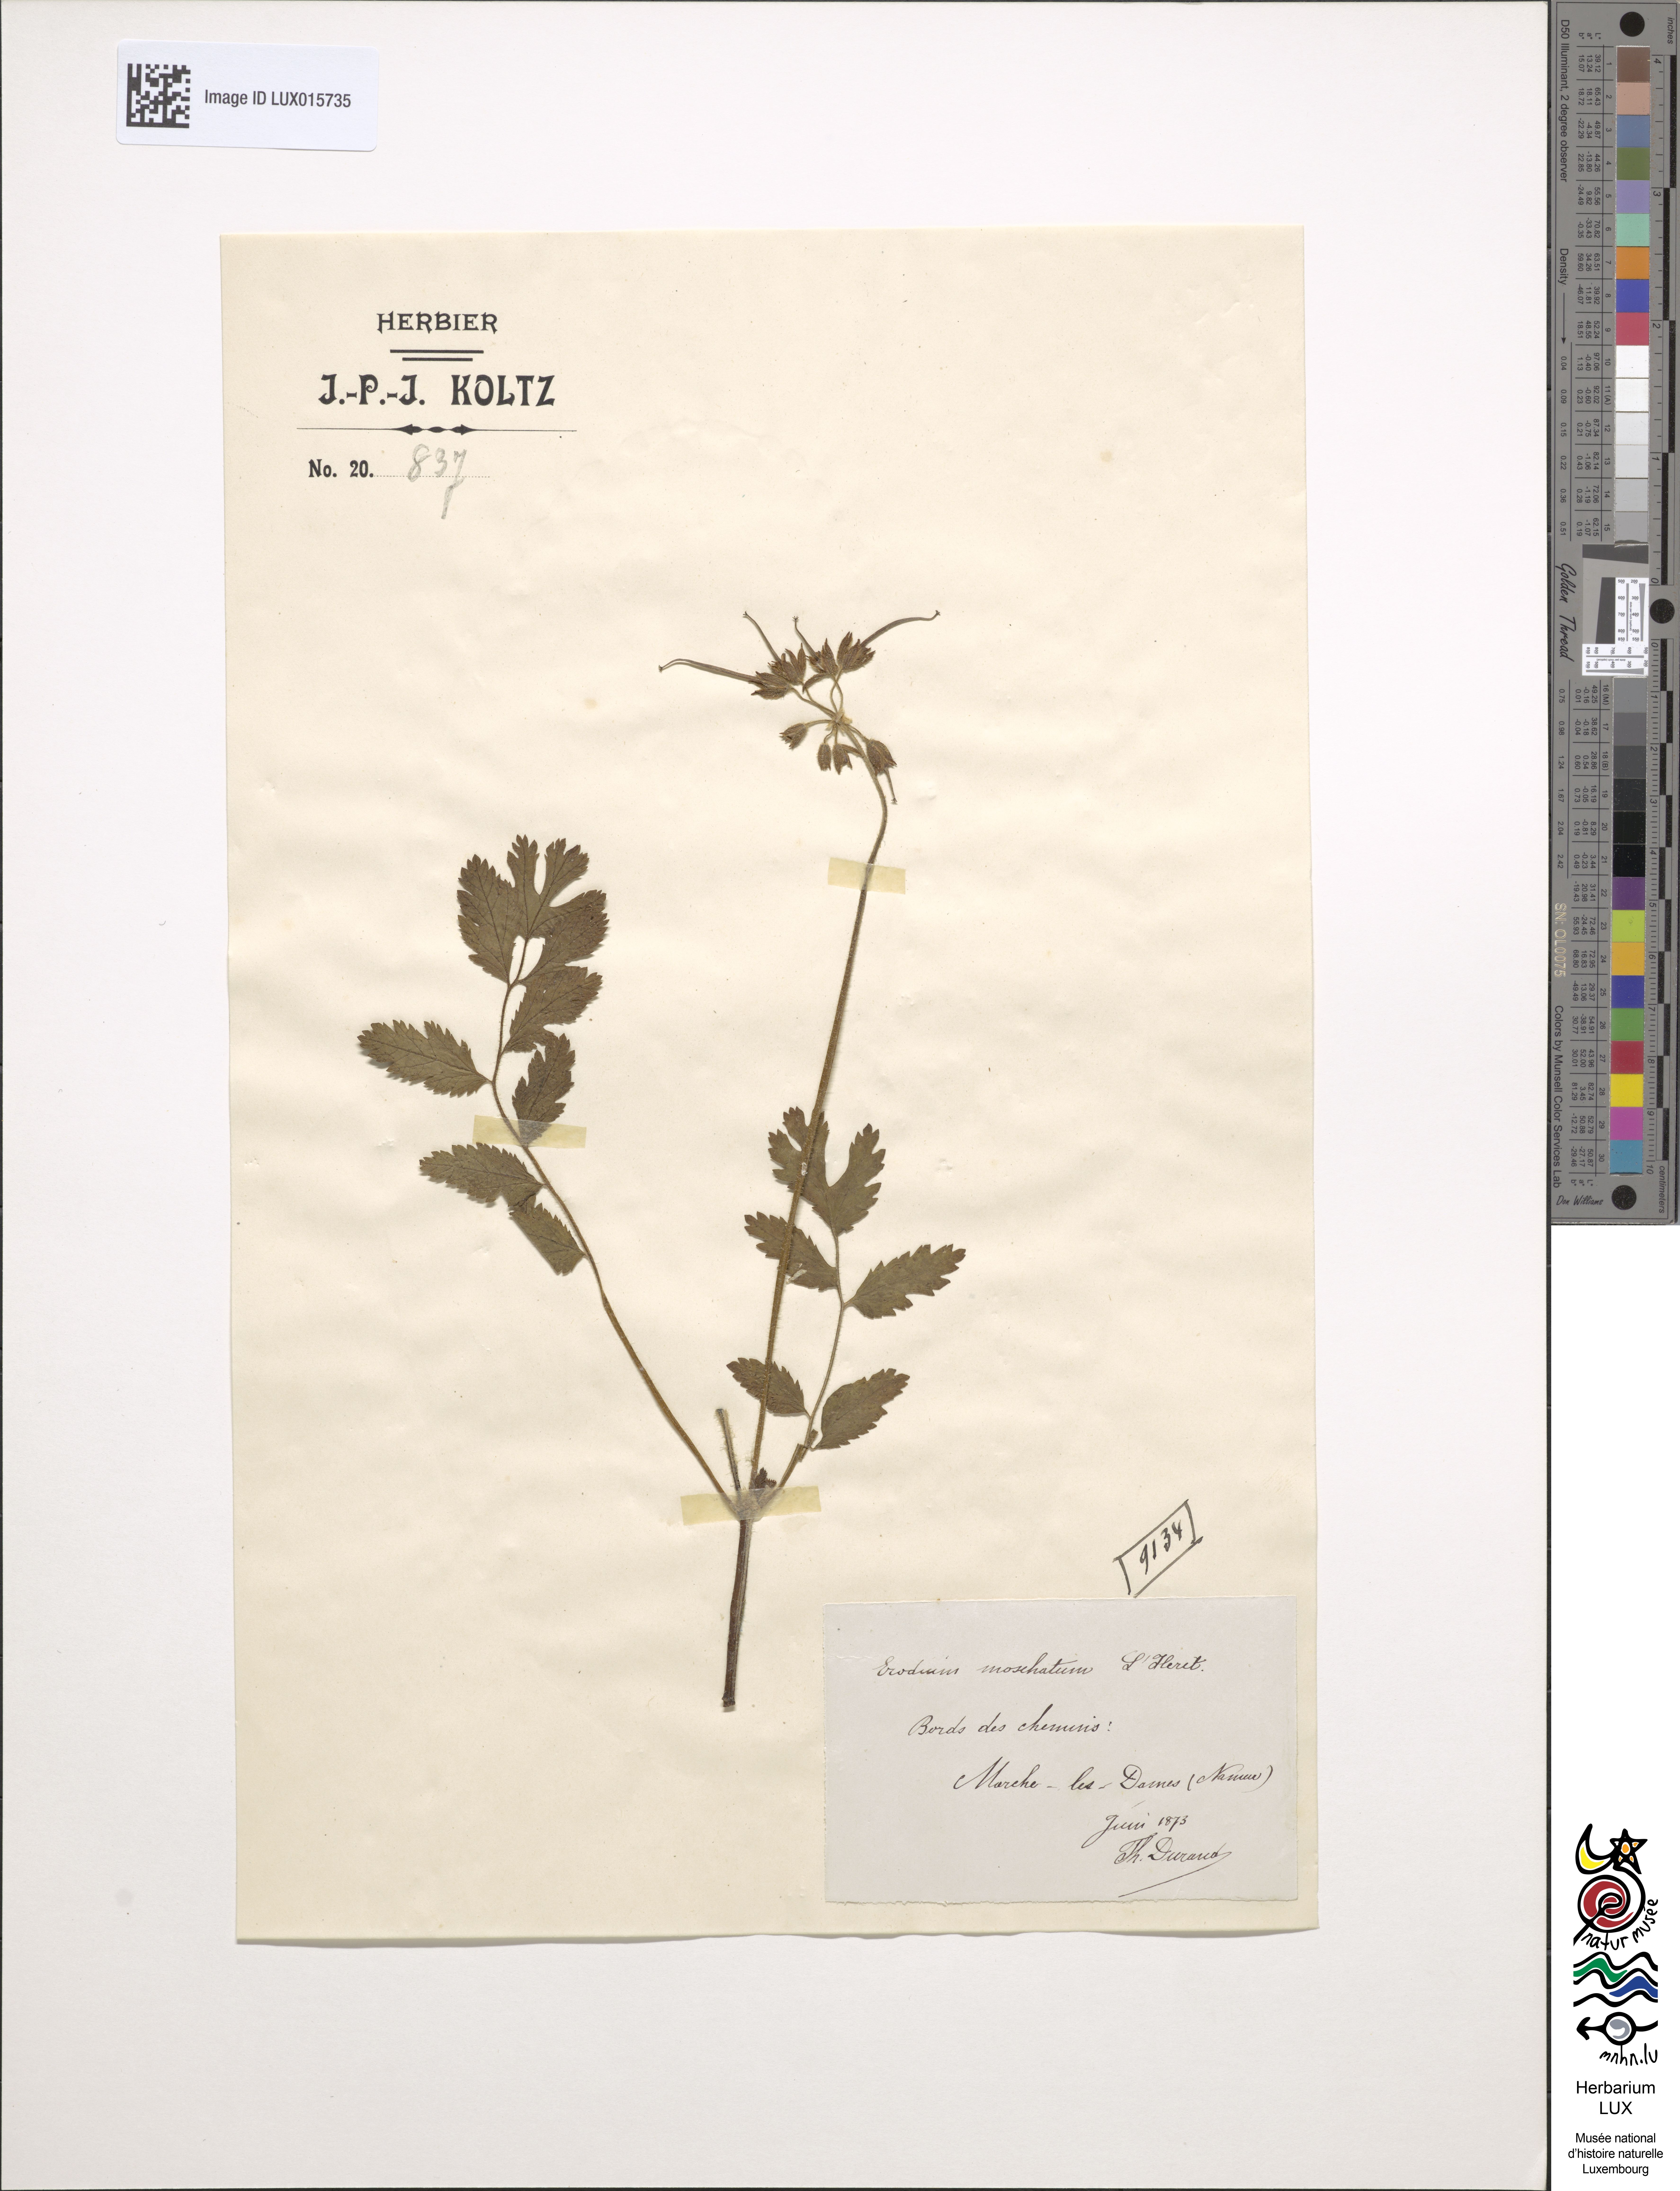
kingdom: Plantae
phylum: Tracheophyta
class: Magnoliopsida
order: Geraniales
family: Geraniaceae
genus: Erodium
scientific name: Erodium moschatum
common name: Musk stork's-bill
